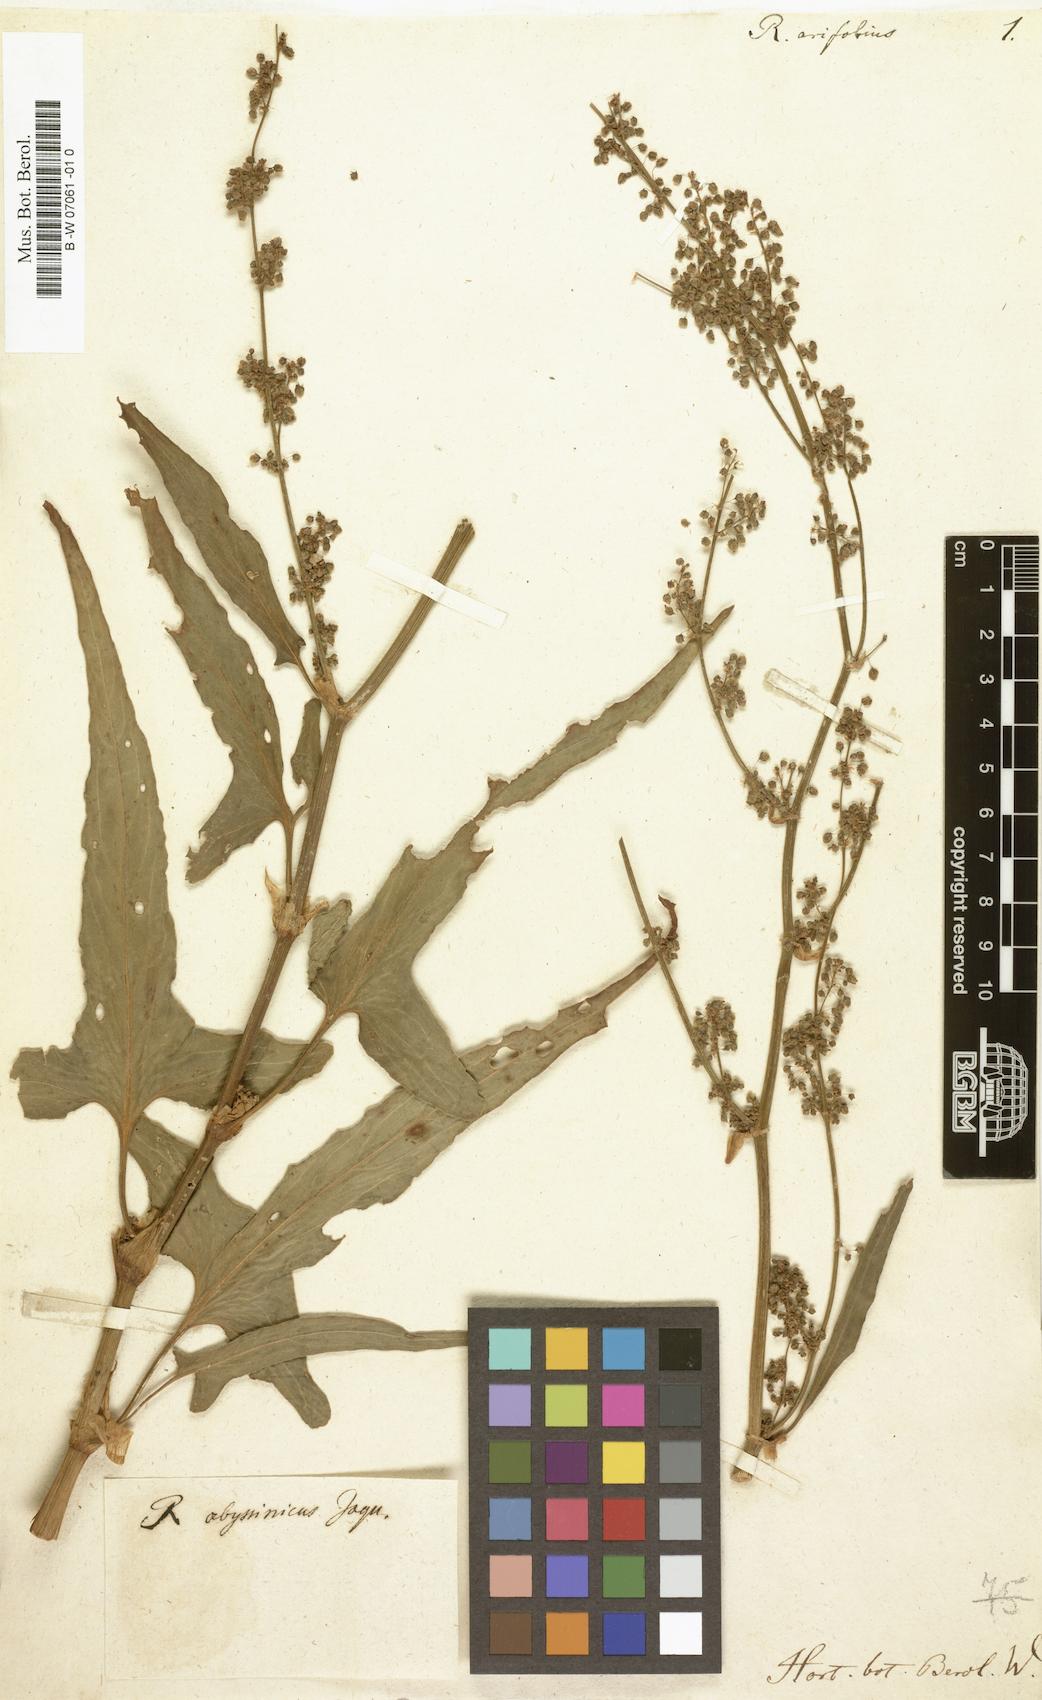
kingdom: Plantae
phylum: Tracheophyta
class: Magnoliopsida
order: Caryophyllales
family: Polygonaceae
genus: Rumex
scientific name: Rumex arifolius
